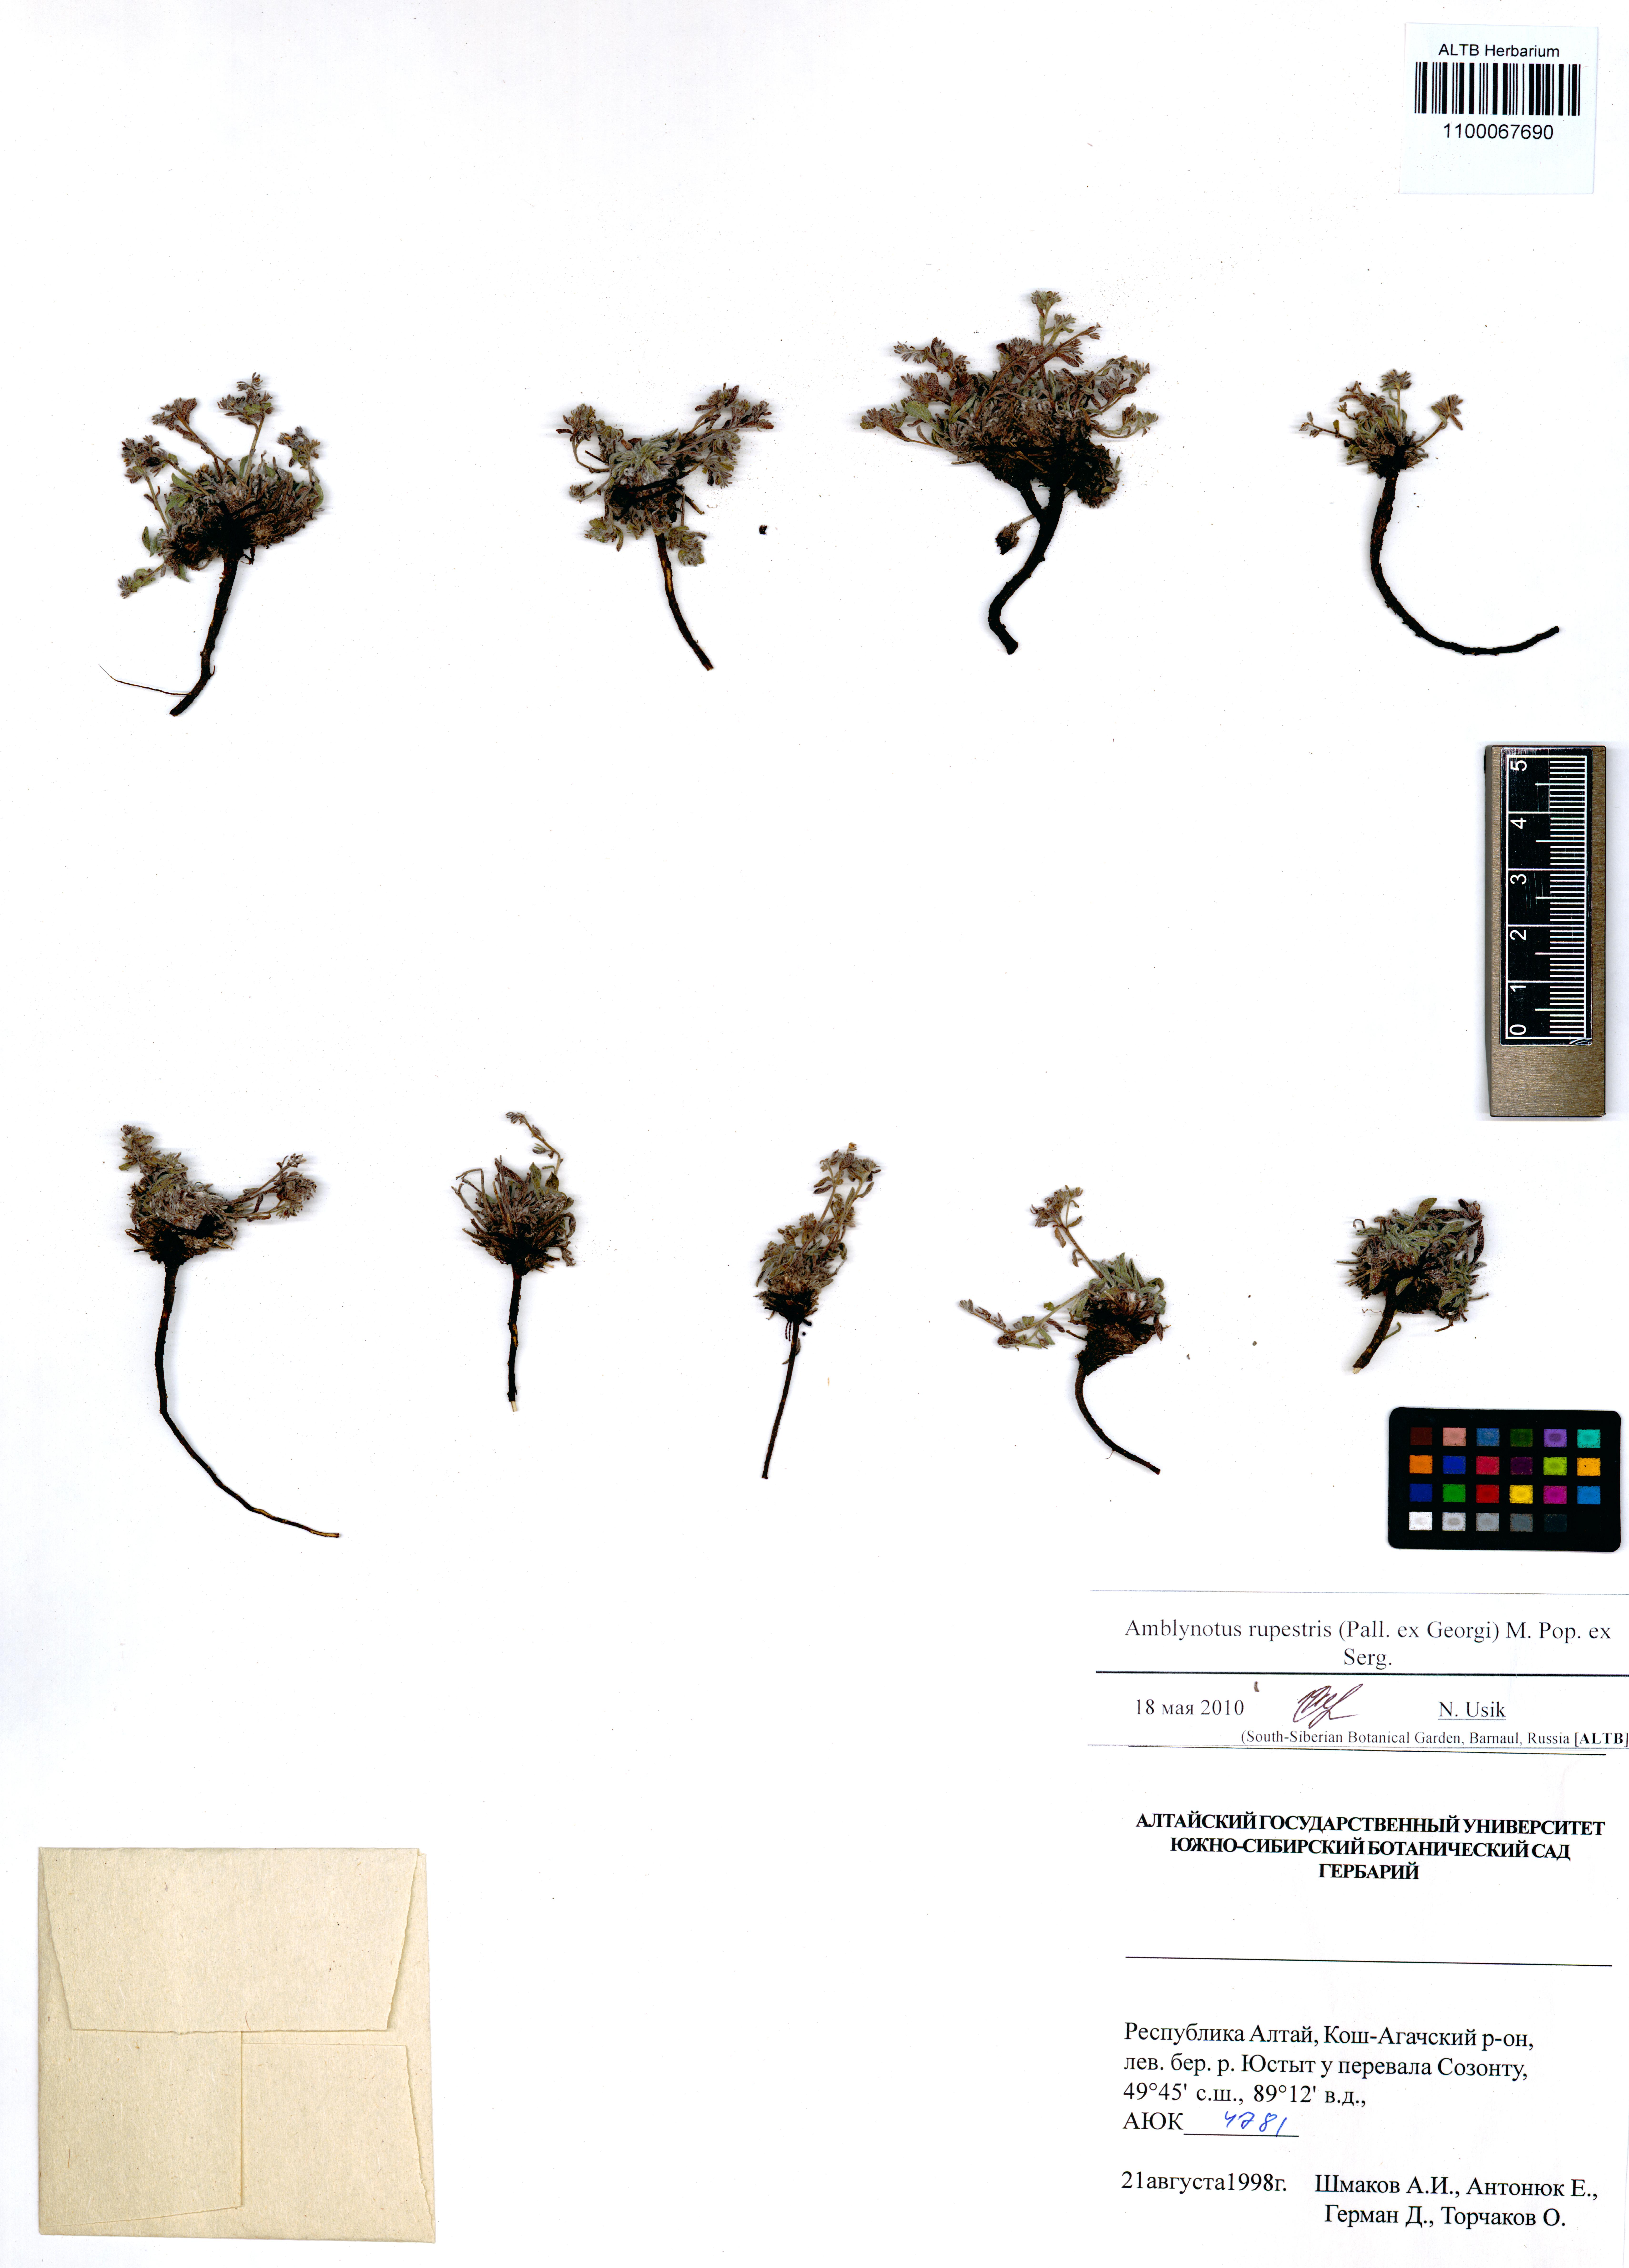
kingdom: Plantae
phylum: Tracheophyta
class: Magnoliopsida
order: Boraginales
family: Boraginaceae
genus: Eritrichium
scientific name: Eritrichium rupestre
